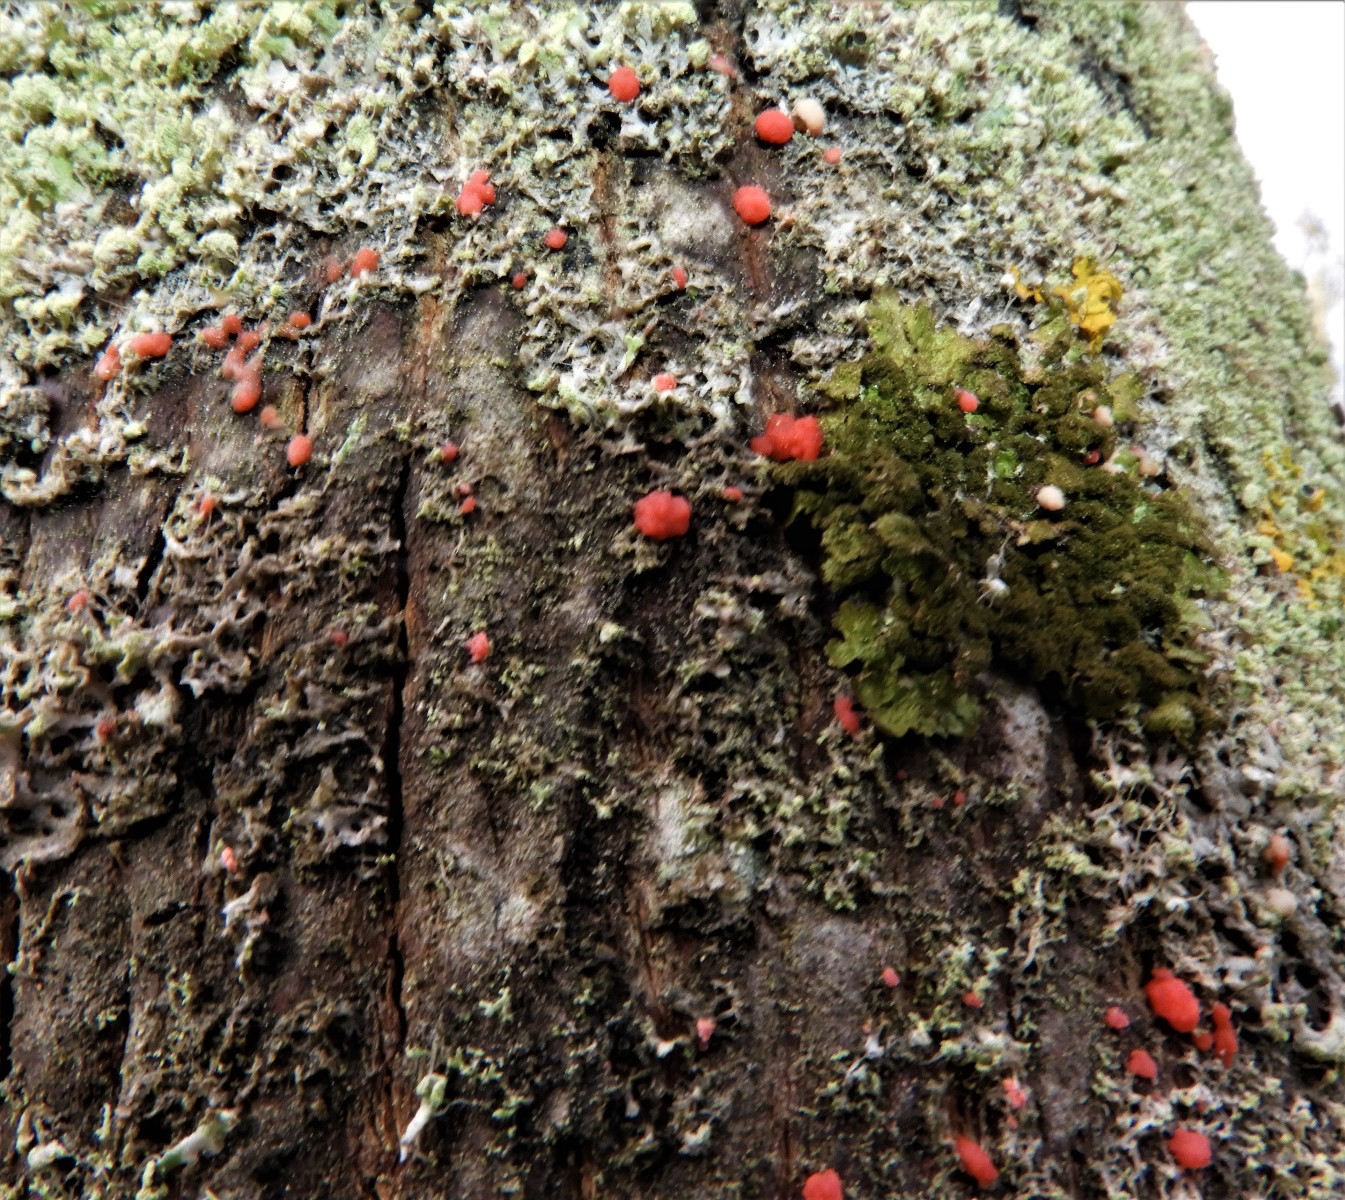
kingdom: Fungi
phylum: Ascomycota
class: Sordariomycetes
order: Hypocreales
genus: Illosporiopsis
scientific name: Illosporiopsis christiansenii
